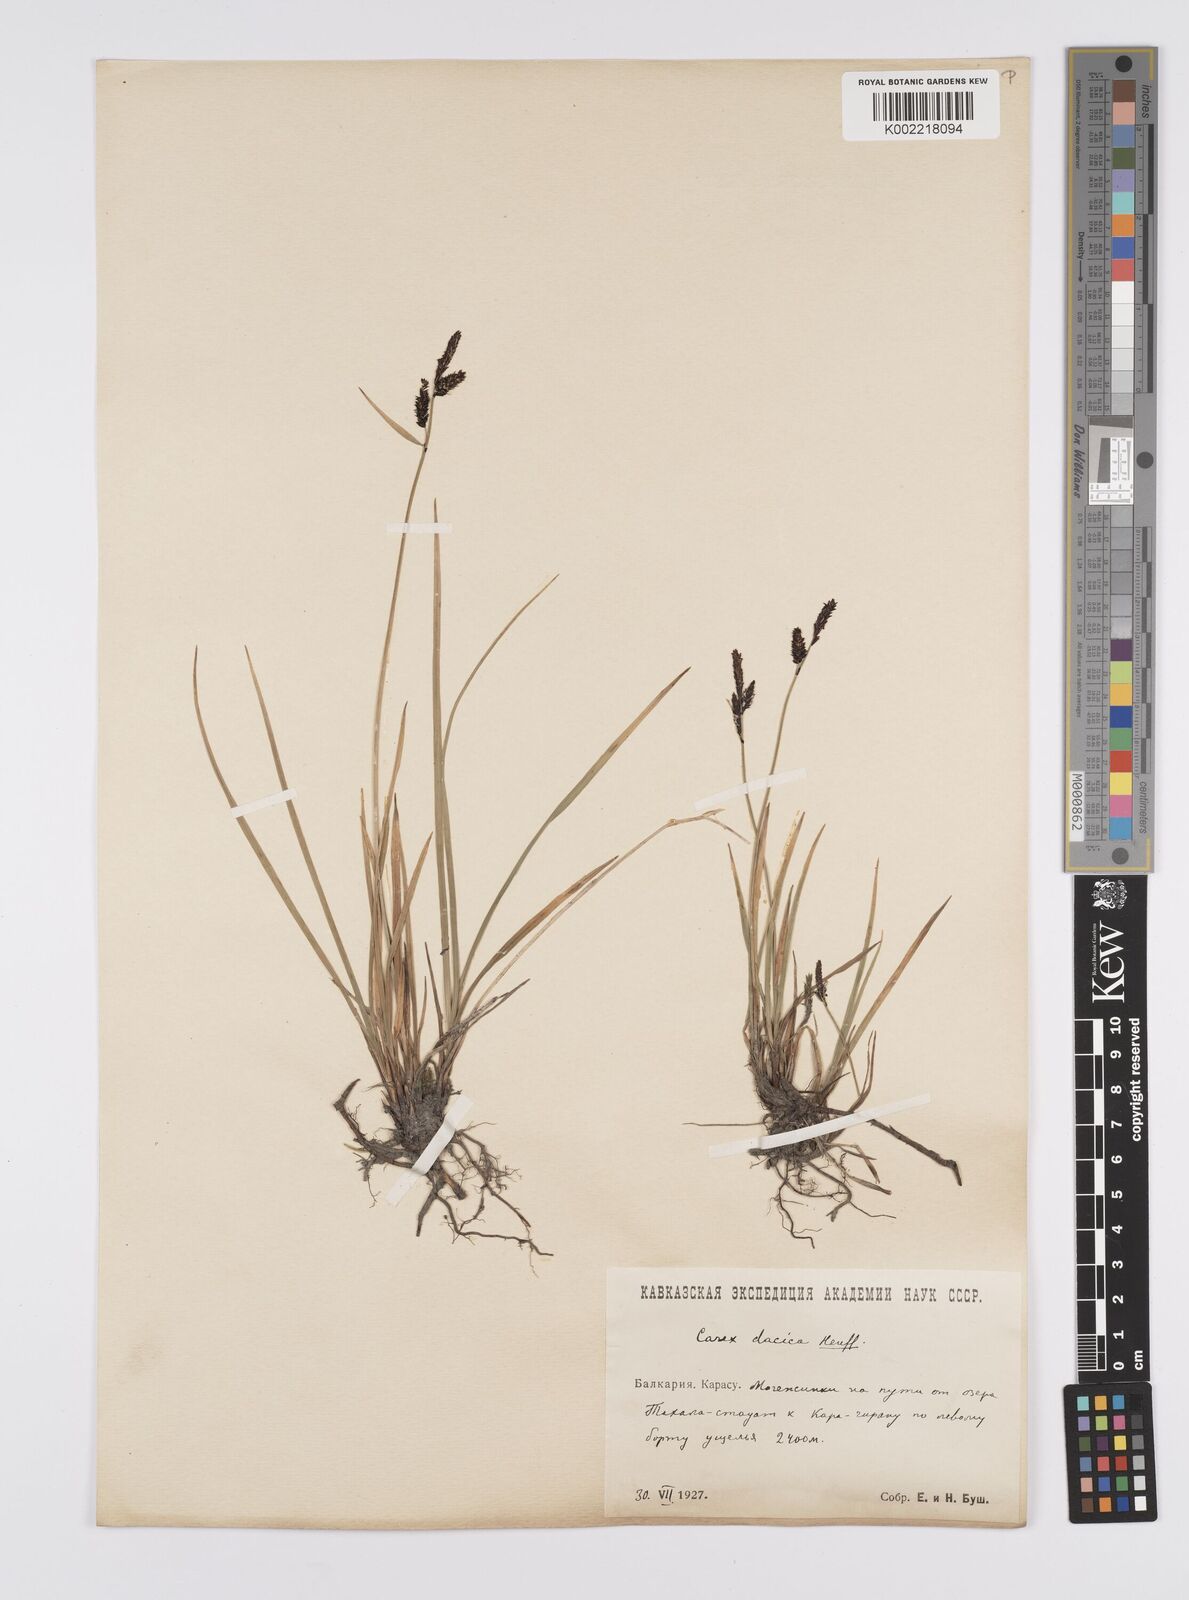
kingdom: Plantae
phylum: Tracheophyta
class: Liliopsida
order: Poales
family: Cyperaceae
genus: Carex
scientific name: Carex dacica
